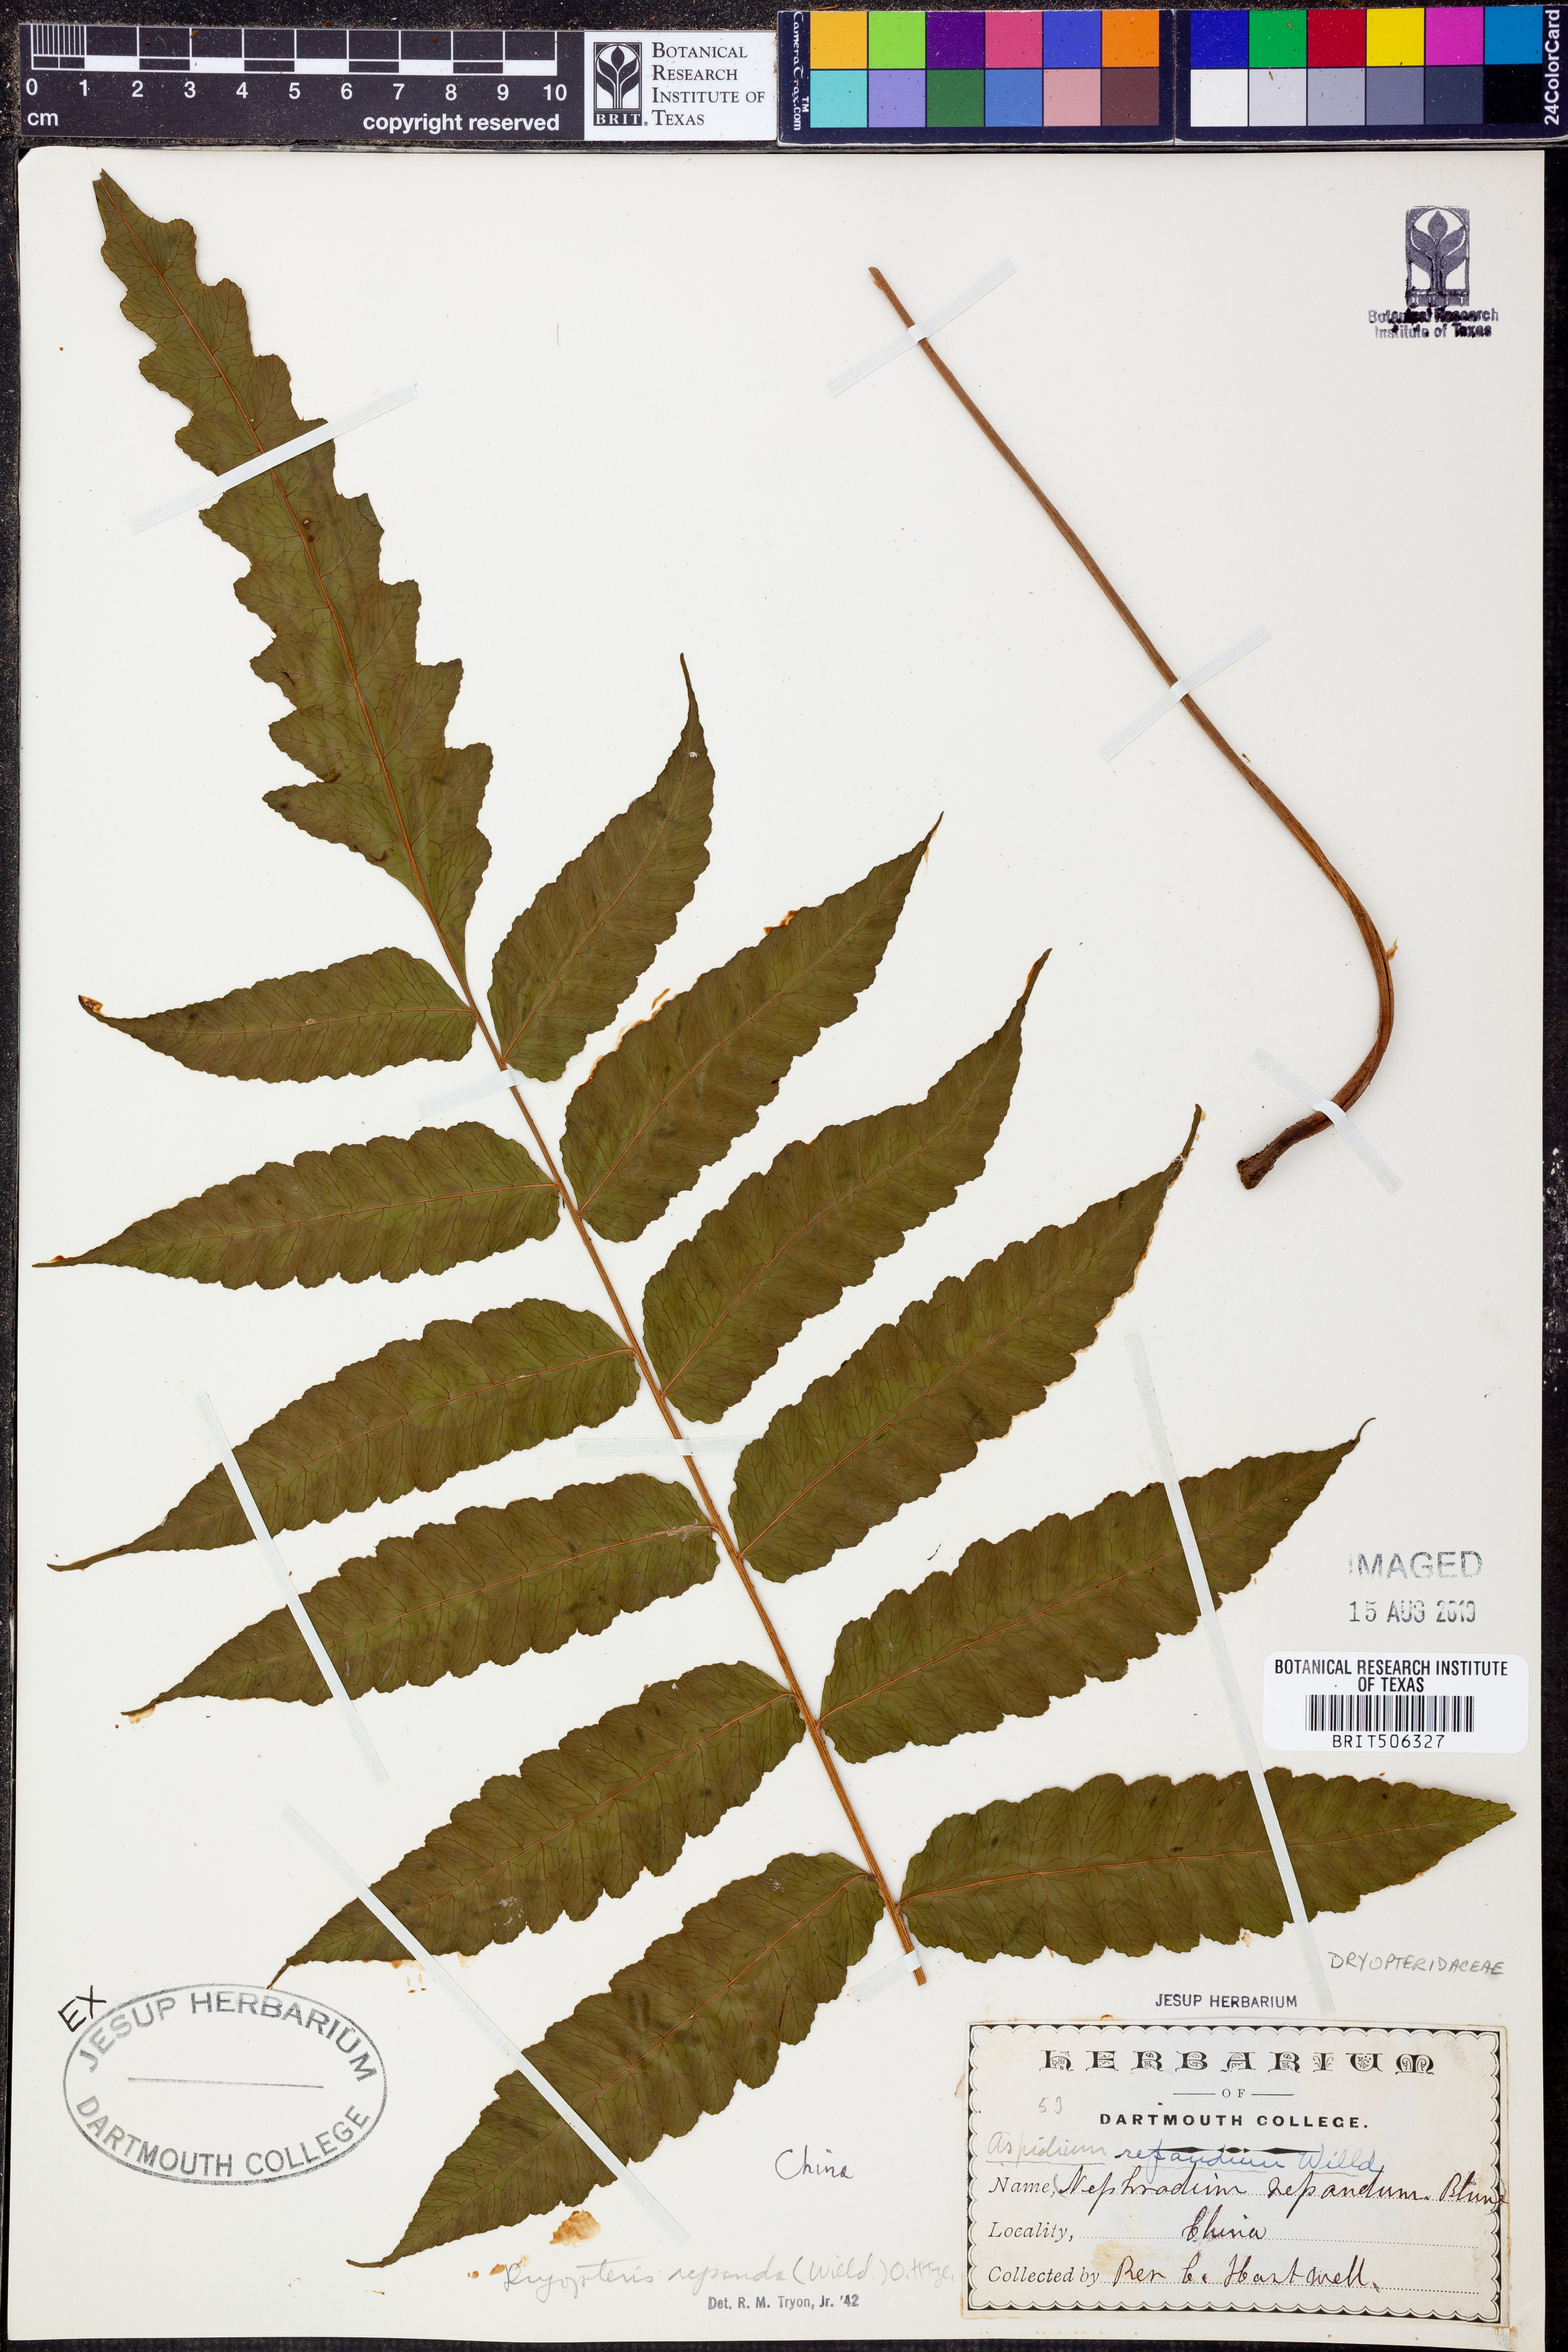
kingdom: Plantae
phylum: Tracheophyta
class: Polypodiopsida
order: Polypodiales
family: Tectariaceae
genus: Tectaria
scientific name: Tectaria repanda
